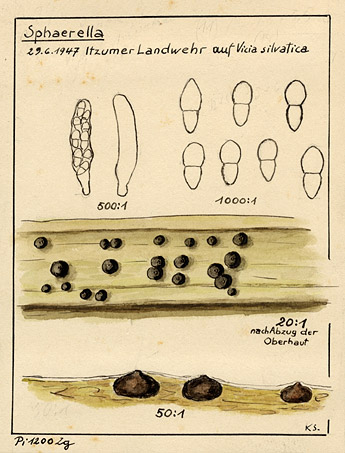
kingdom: Plantae
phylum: Tracheophyta
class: Magnoliopsida
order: Fabales
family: Fabaceae
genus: Vicia
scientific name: Vicia sylvatica
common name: Wood vetch
